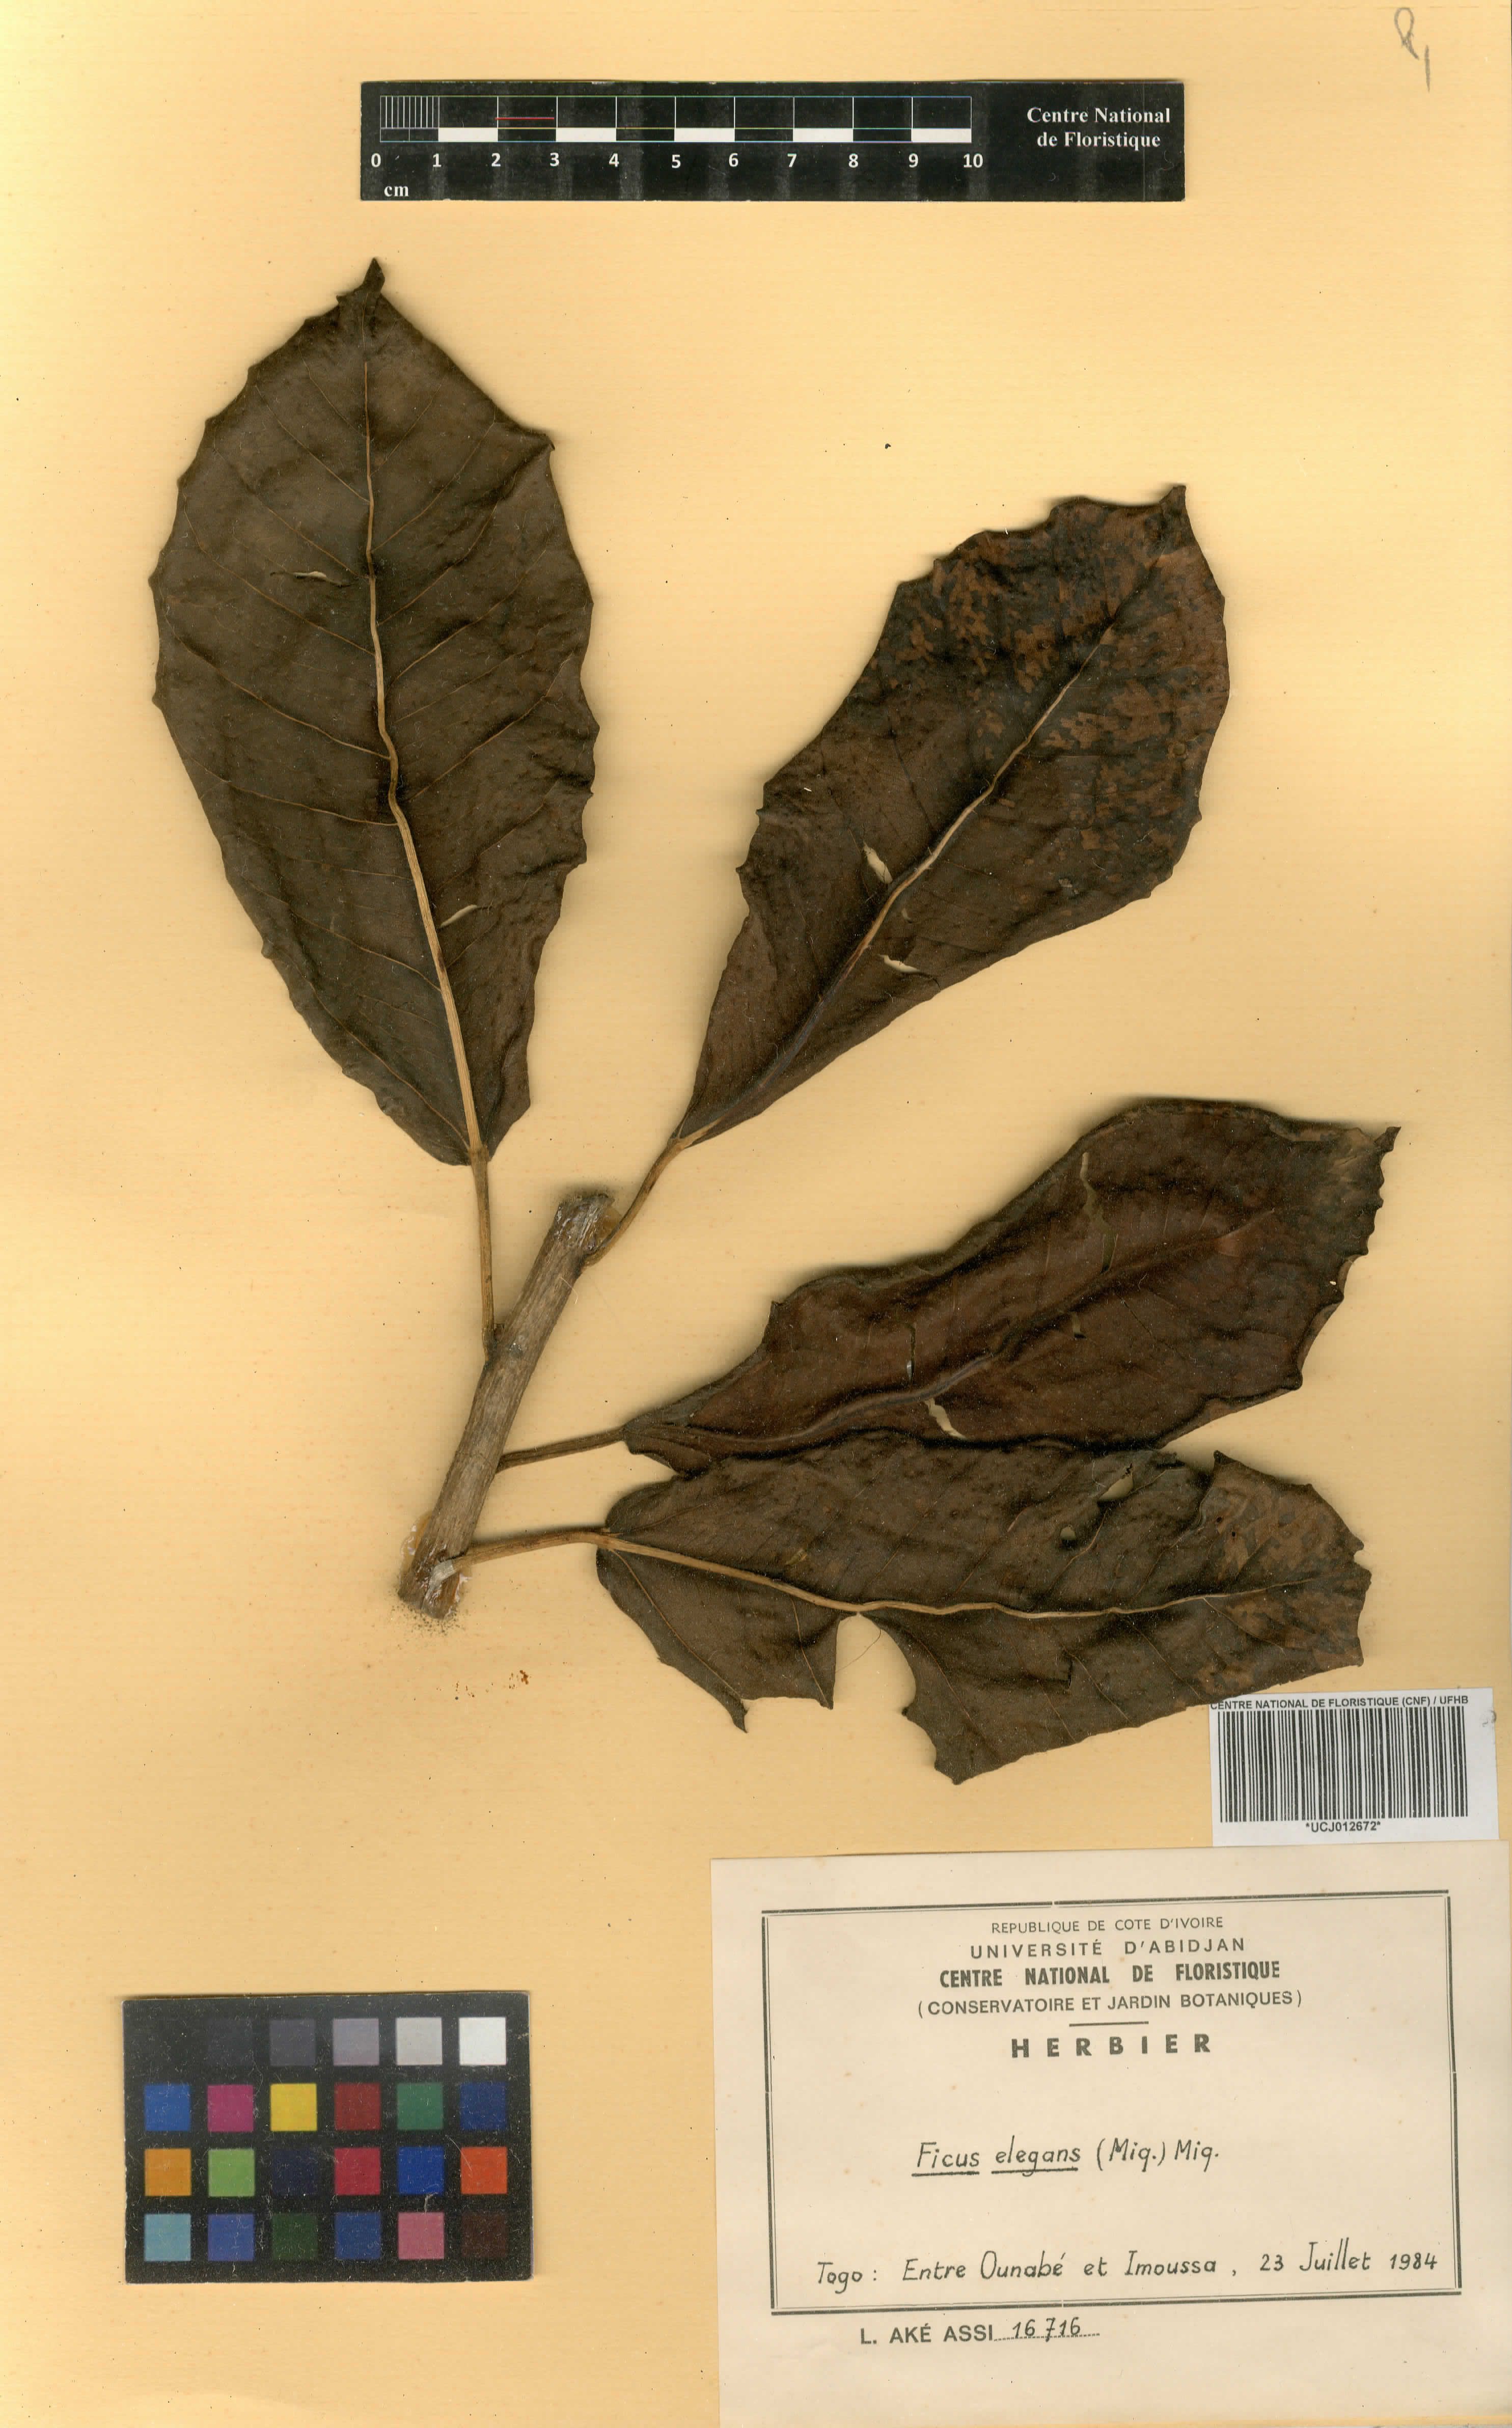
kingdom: Plantae
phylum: Tracheophyta
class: Magnoliopsida
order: Rosales
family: Moraceae
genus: Ficus
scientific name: Ficus
